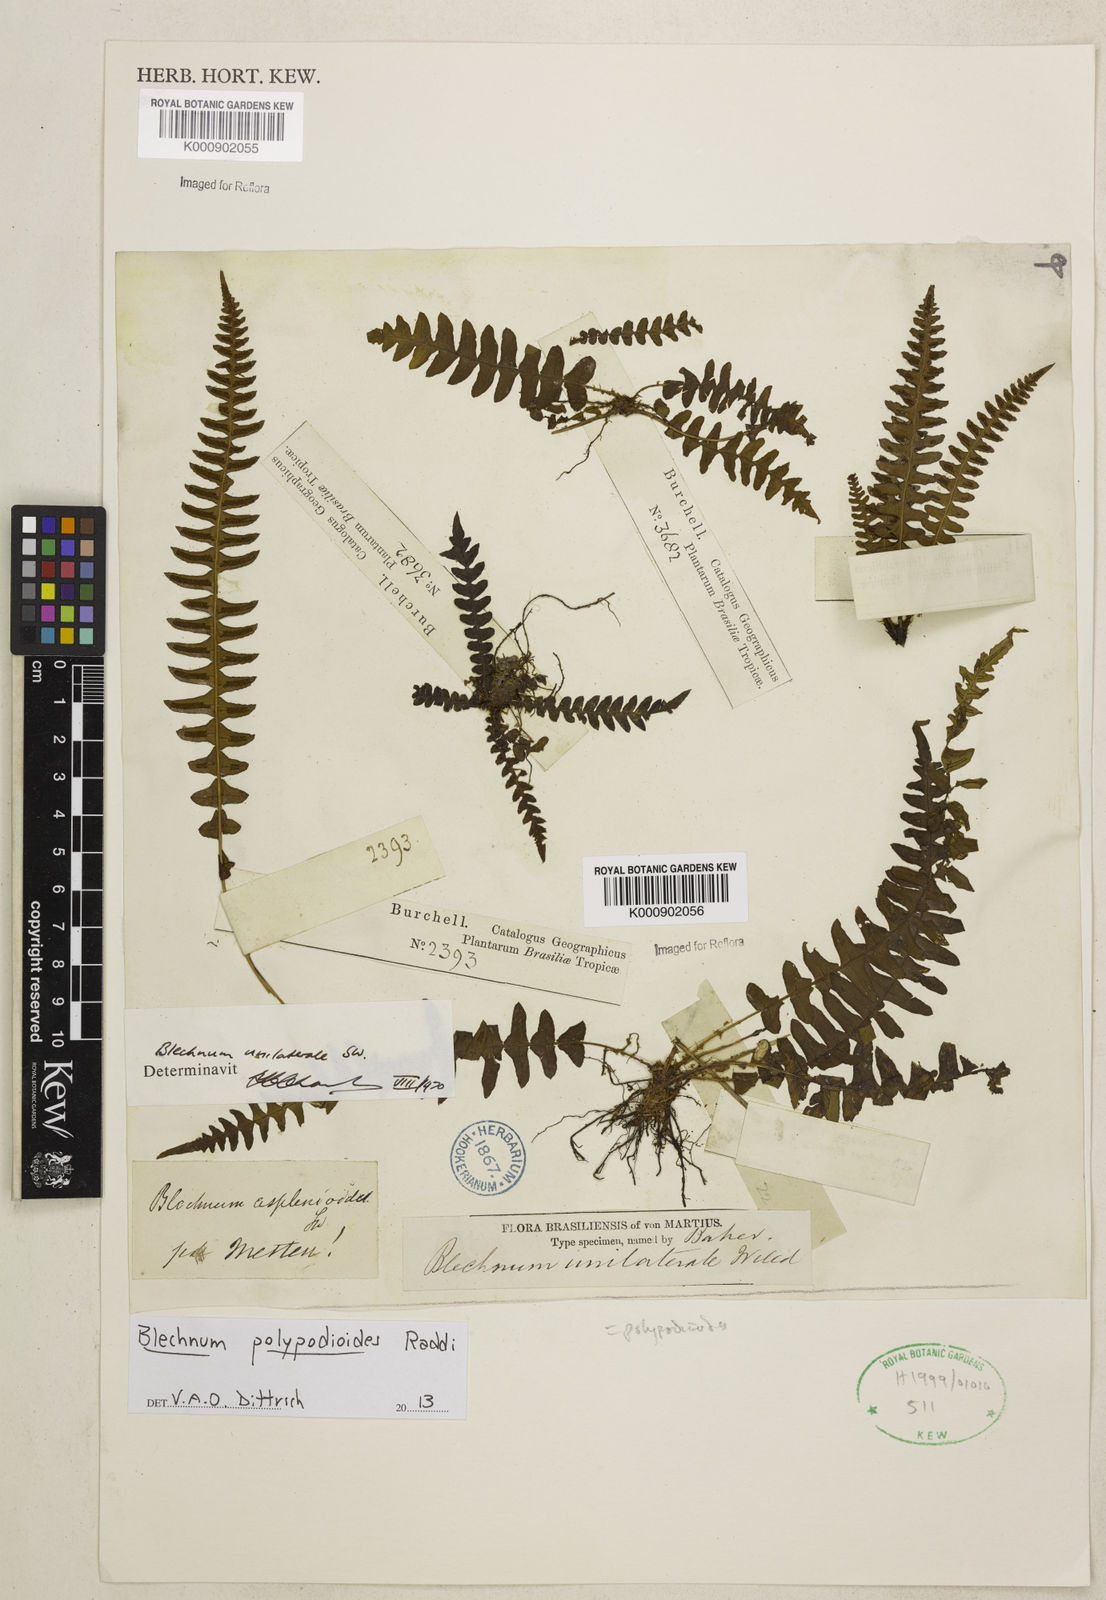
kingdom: Plantae
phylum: Tracheophyta
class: Polypodiopsida
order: Polypodiales
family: Blechnaceae
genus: Blechnum
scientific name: Blechnum polypodioides
